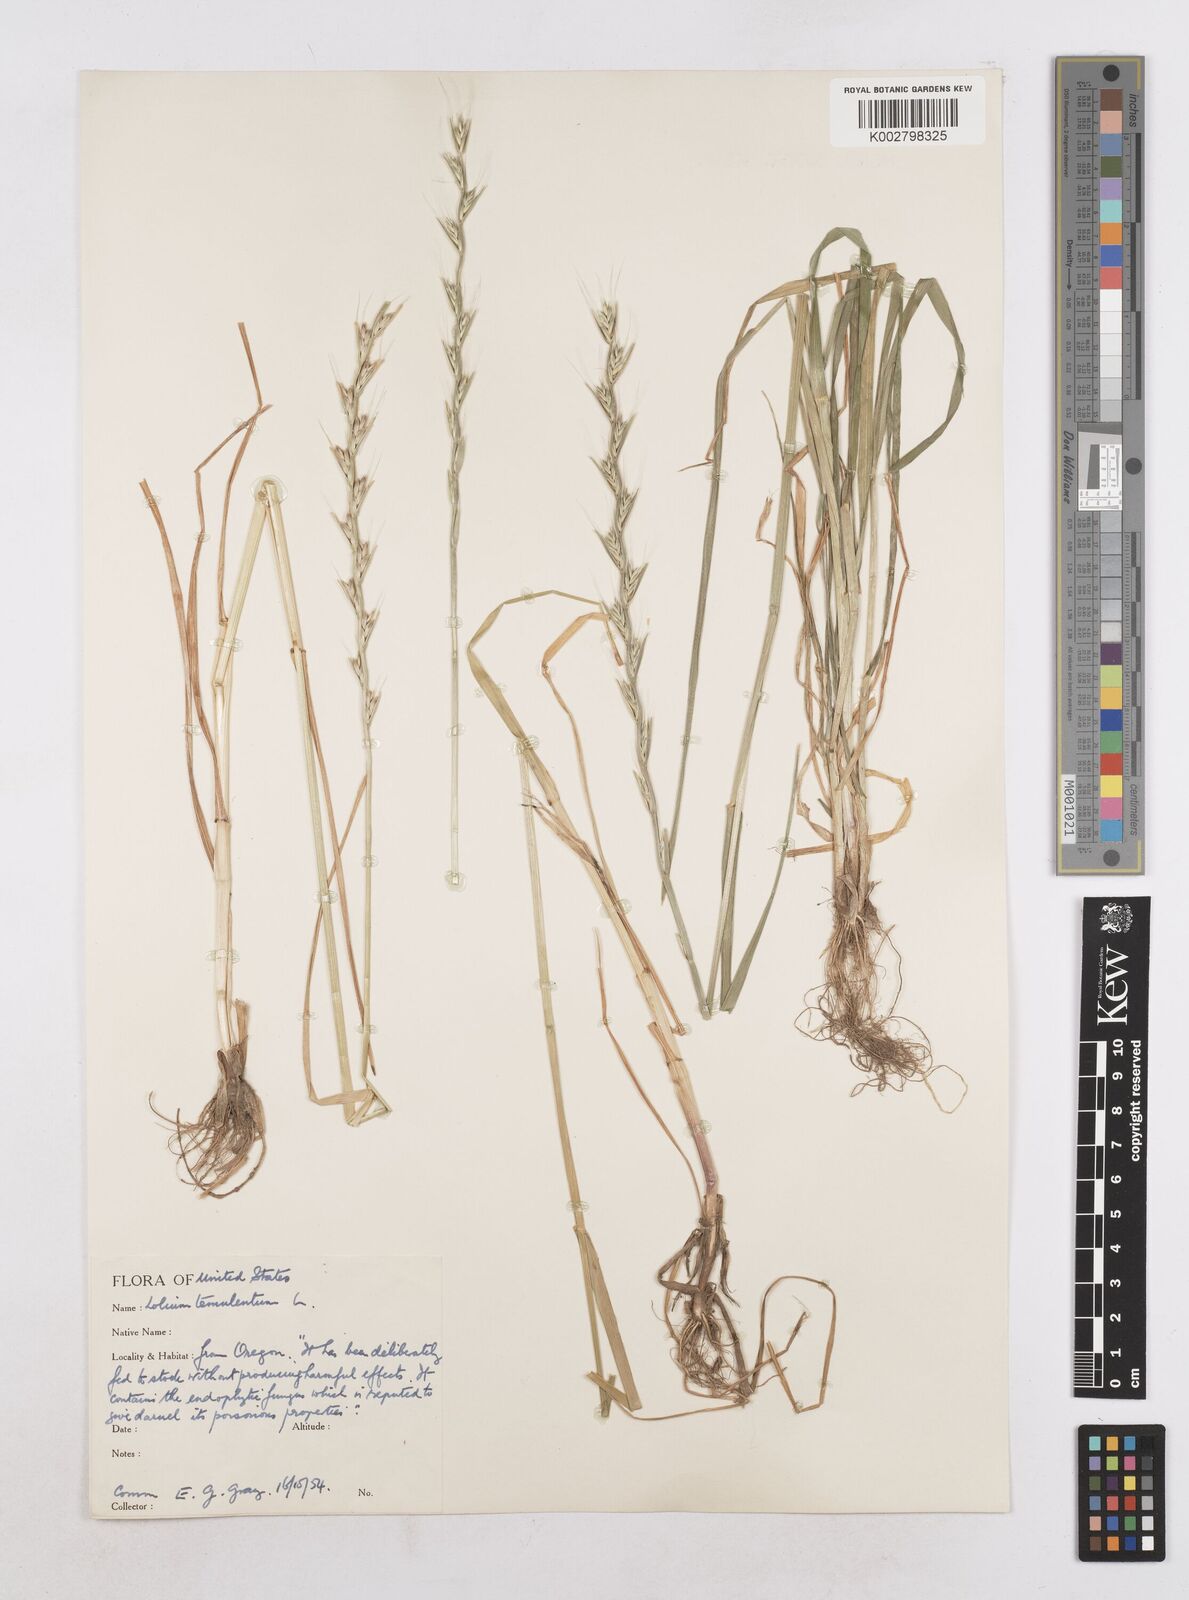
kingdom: Plantae
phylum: Tracheophyta
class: Liliopsida
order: Poales
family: Poaceae
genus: Lolium
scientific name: Lolium temulentum
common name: Darnel
